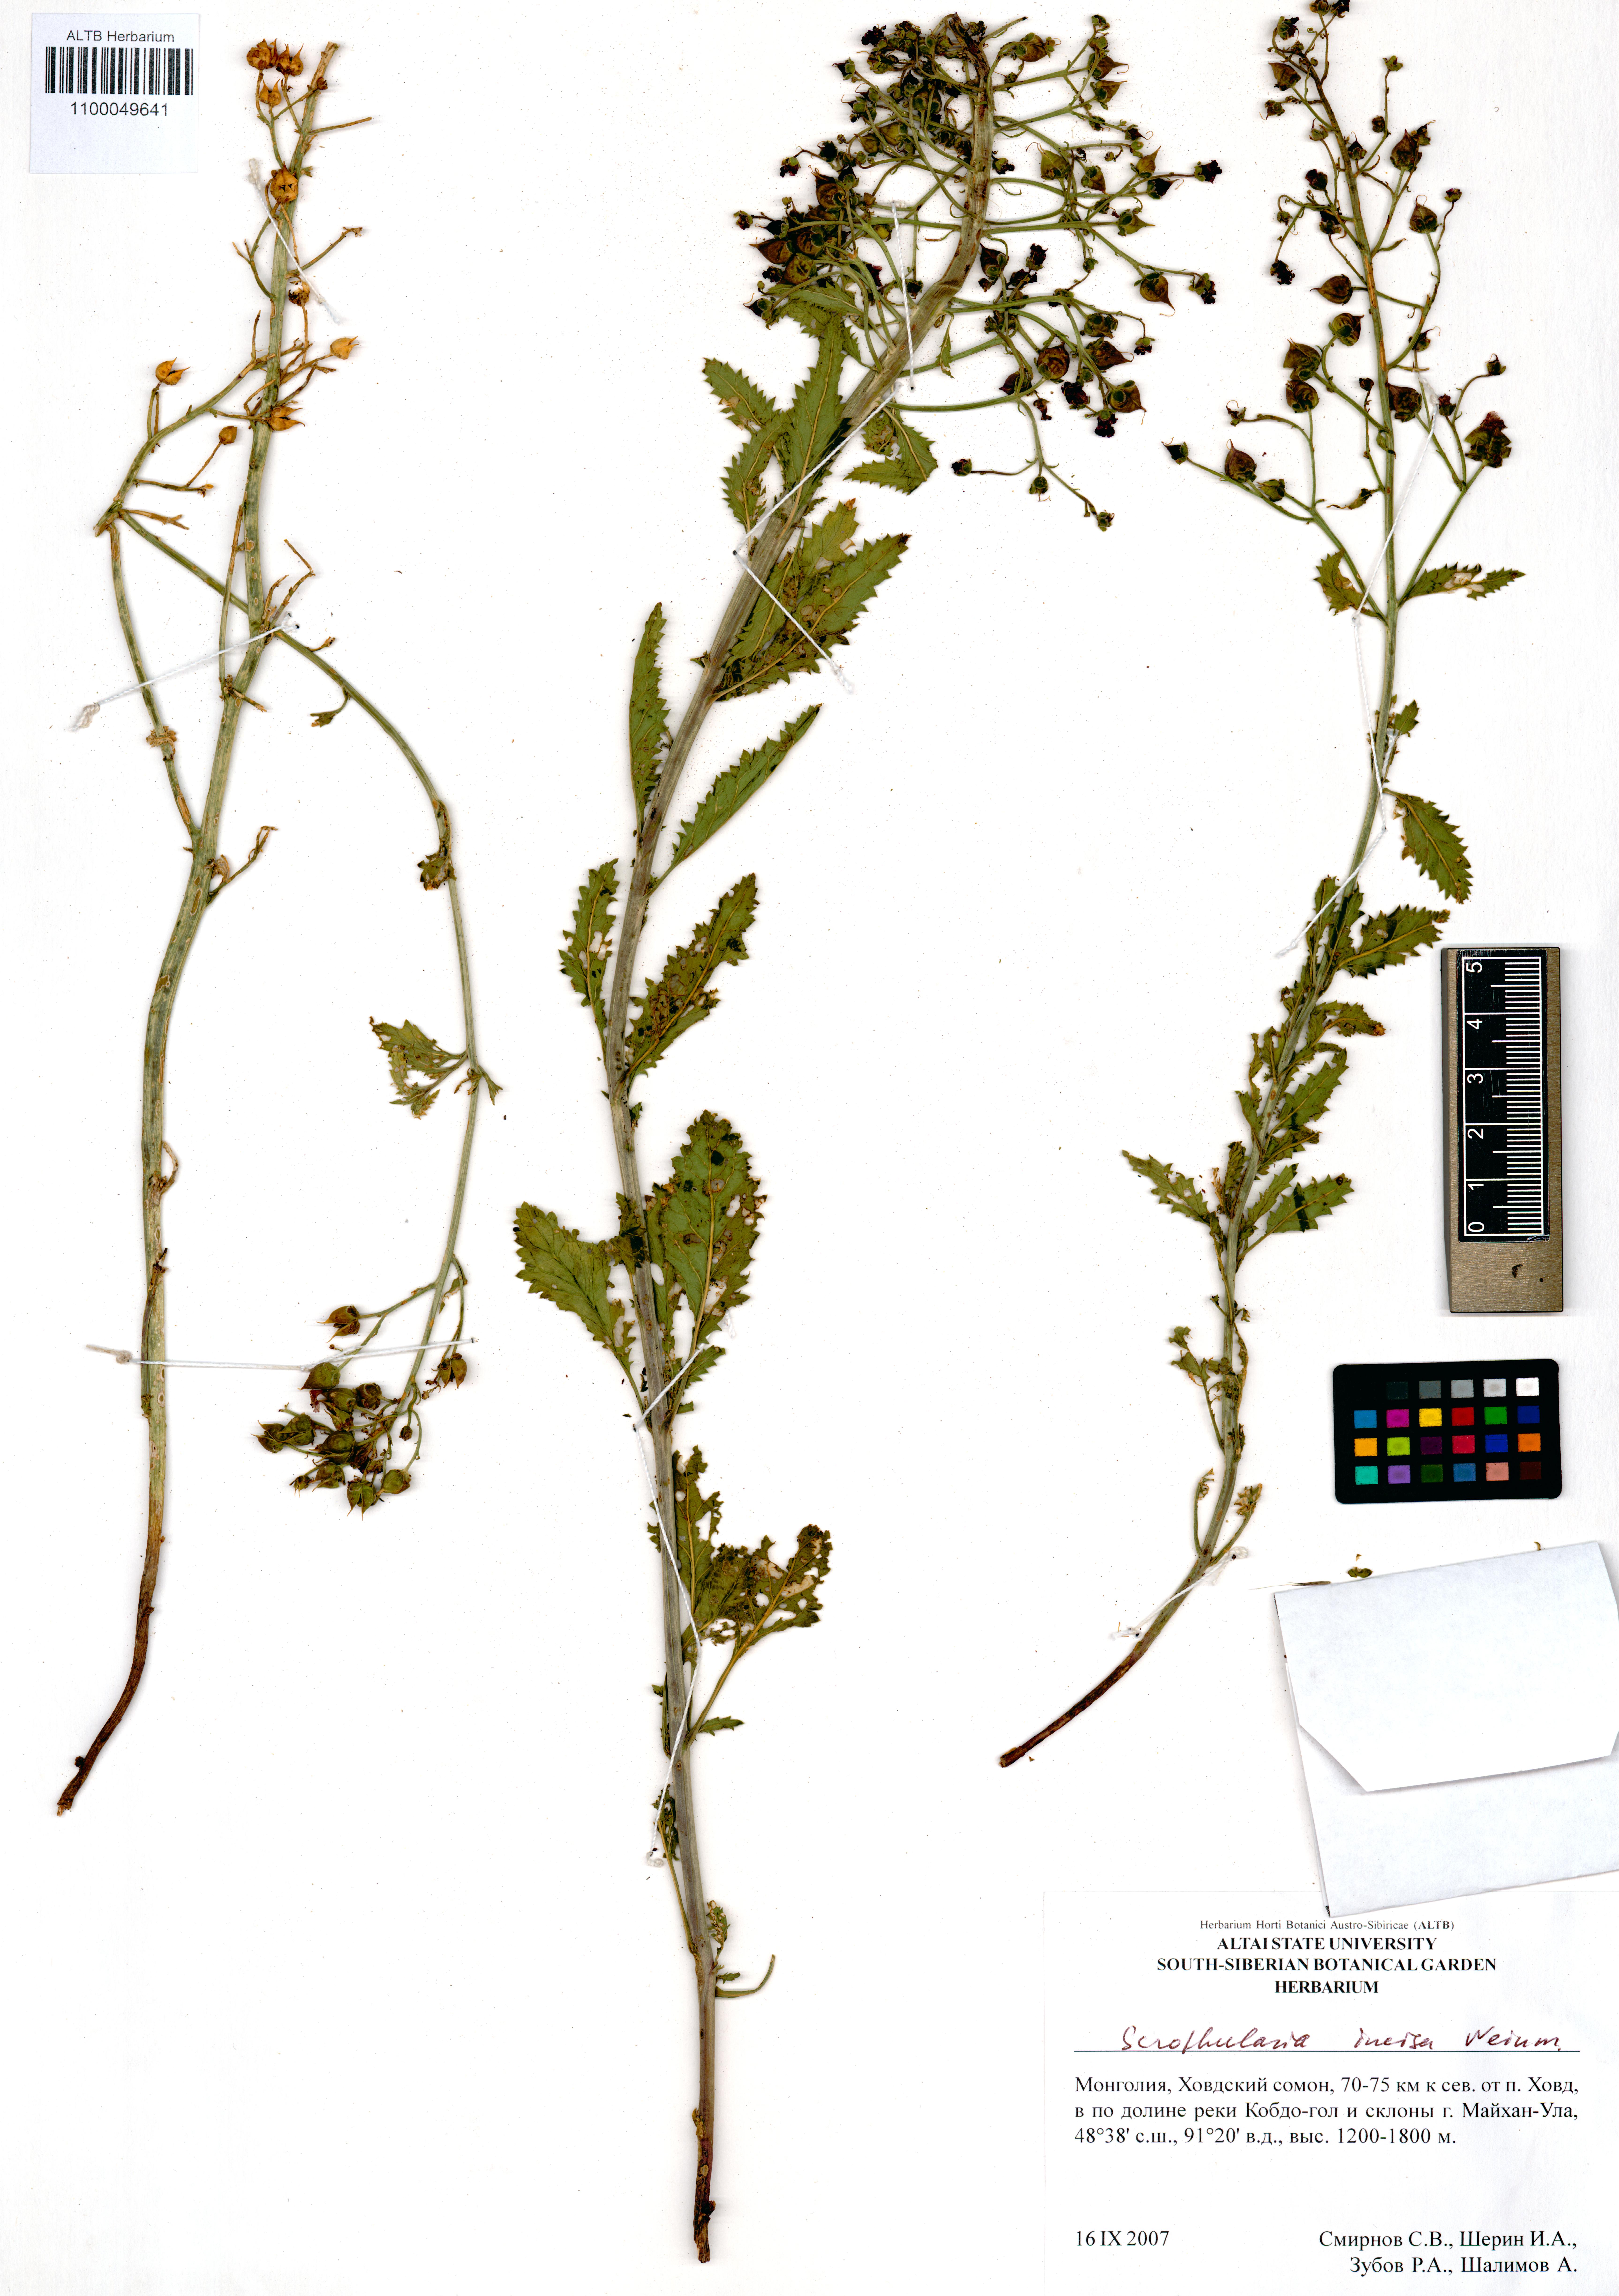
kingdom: Plantae
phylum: Tracheophyta
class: Magnoliopsida
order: Lamiales
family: Scrophulariaceae
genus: Scrophularia
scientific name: Scrophularia incisa
